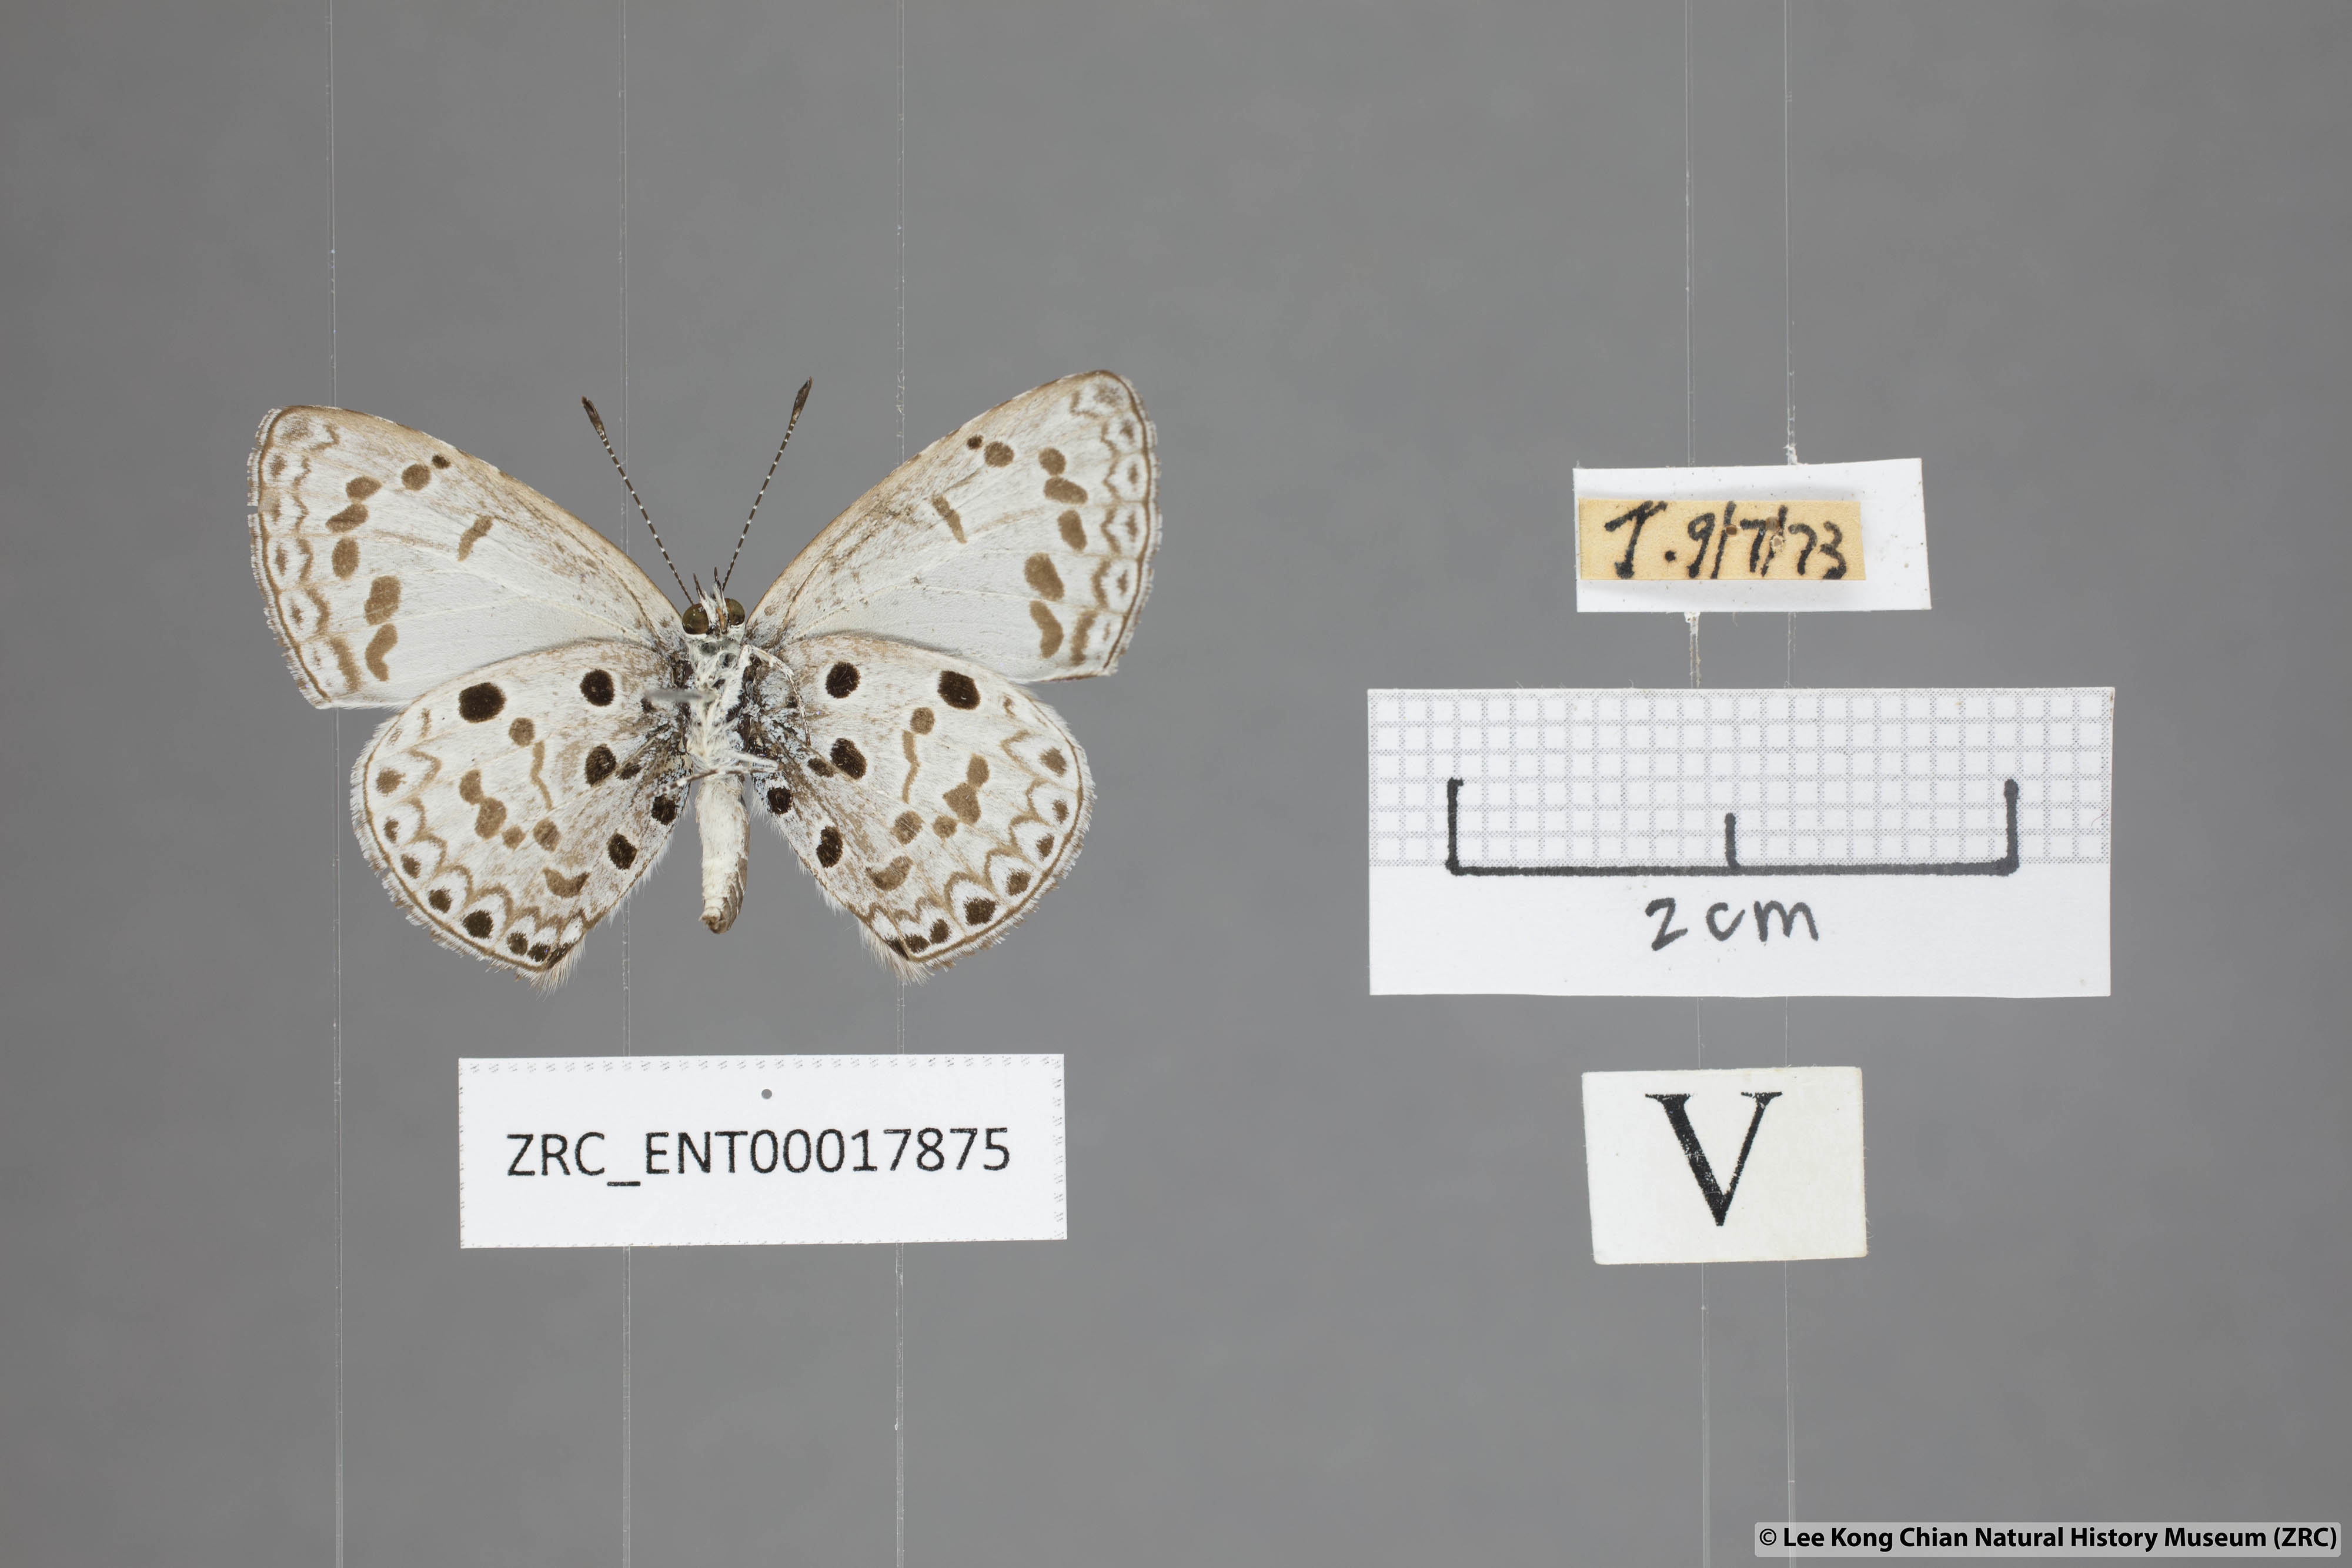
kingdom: Animalia
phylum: Arthropoda
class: Insecta
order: Lepidoptera
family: Lycaenidae
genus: Acytolepis
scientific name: Acytolepis puspa
